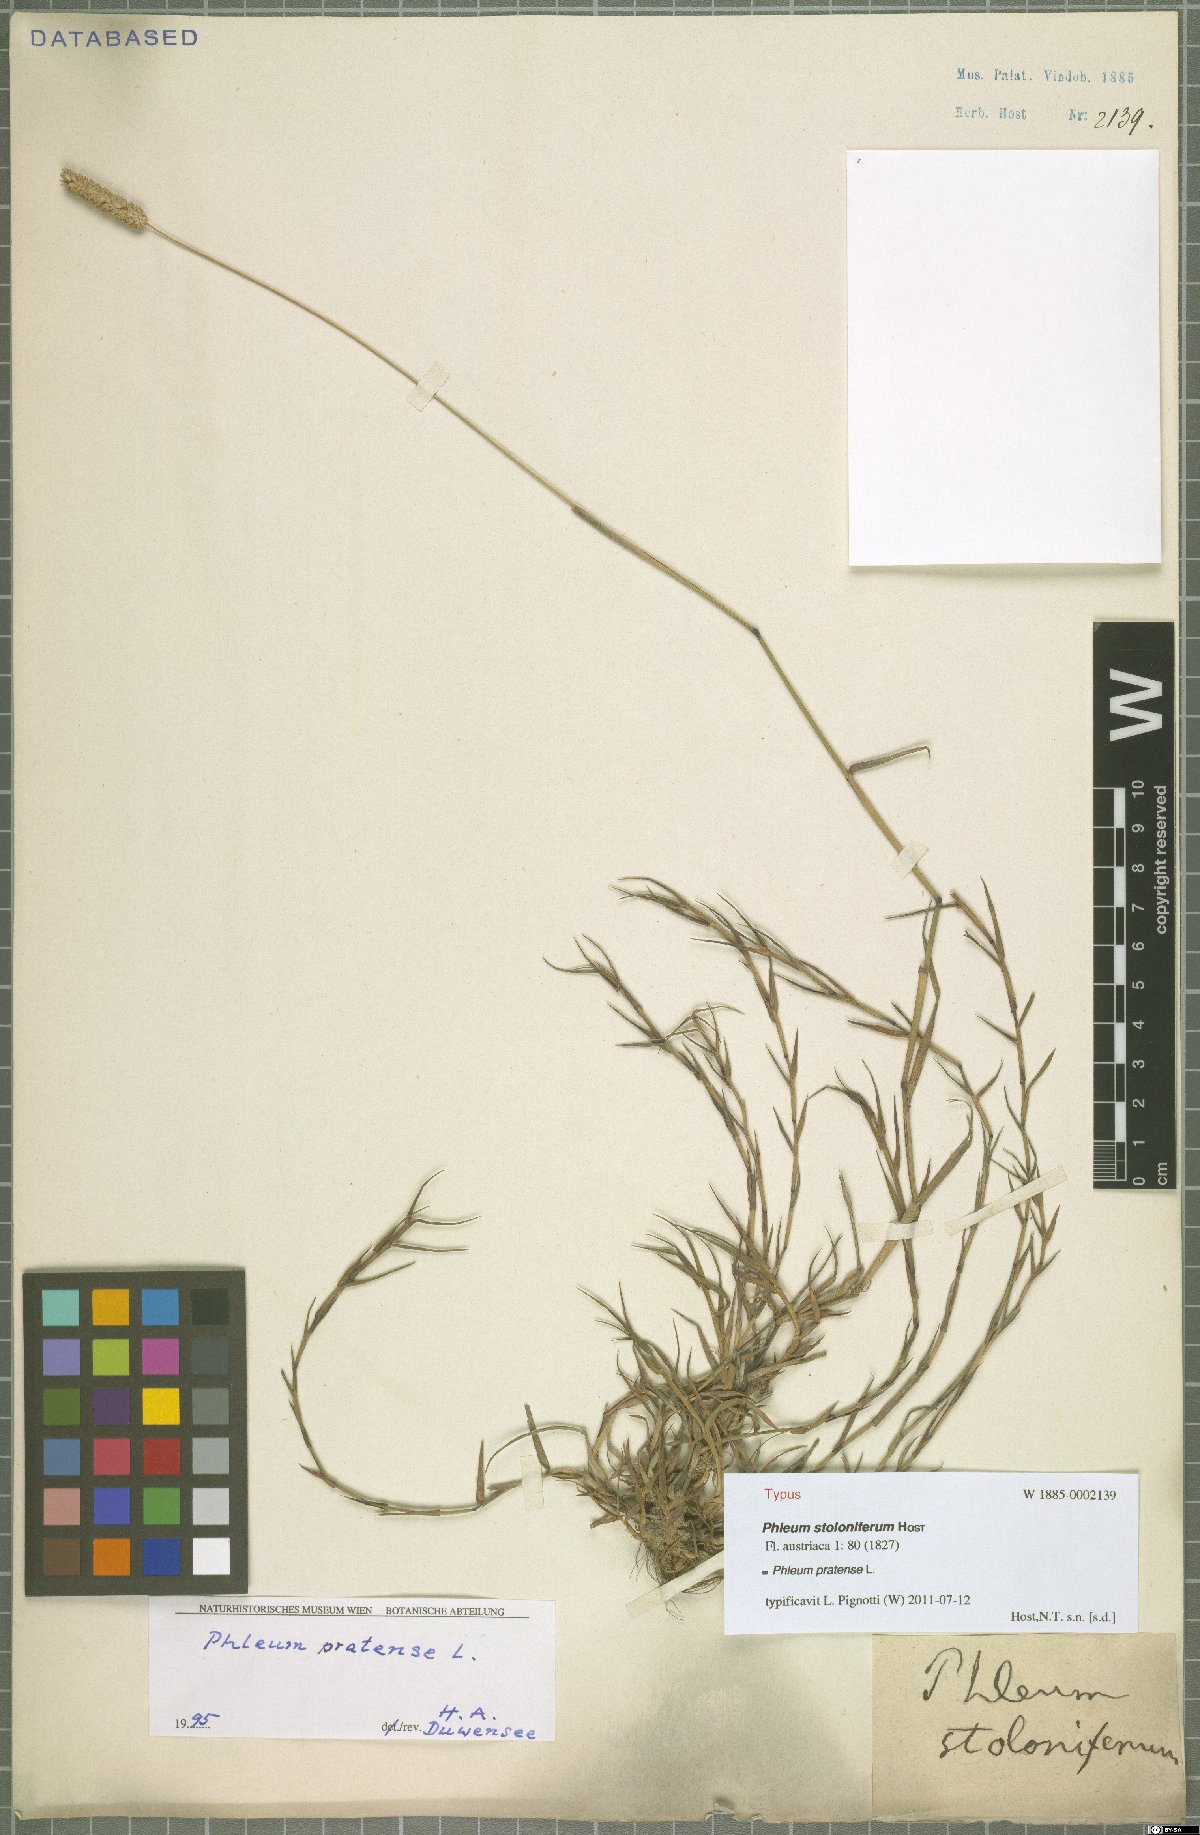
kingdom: Plantae
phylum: Tracheophyta
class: Liliopsida
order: Poales
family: Poaceae
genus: Phleum
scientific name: Phleum pratense
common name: Timothy grass
